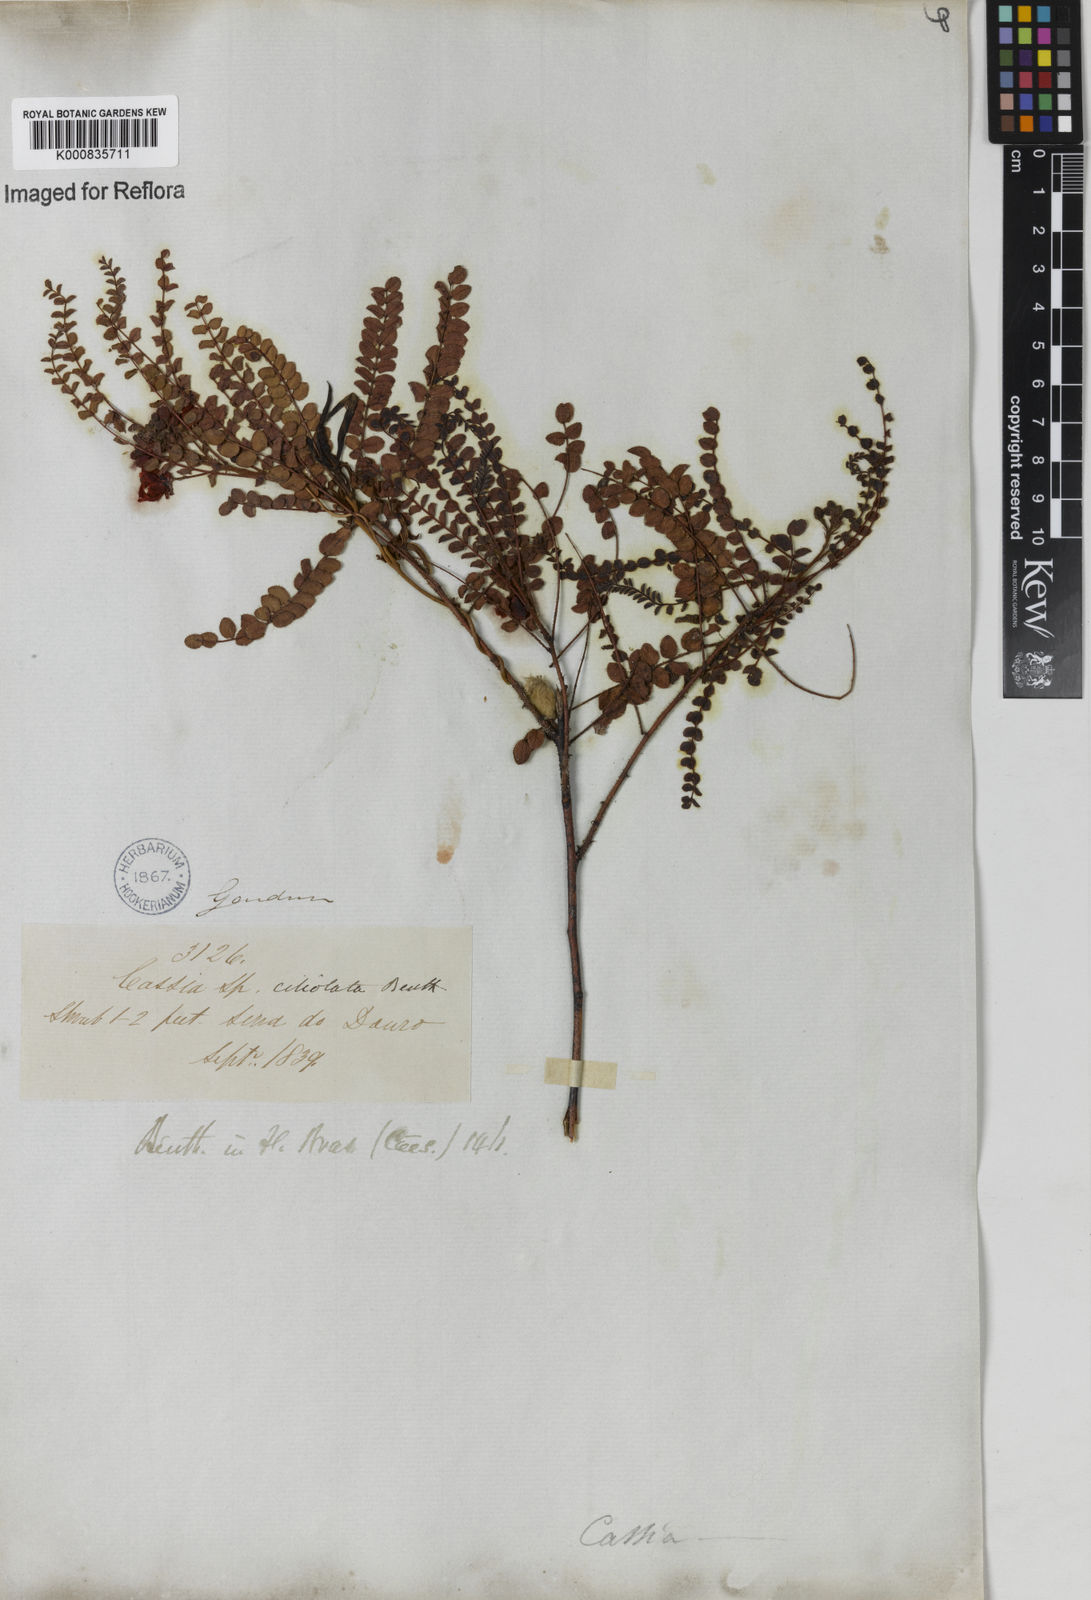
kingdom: Plantae
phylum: Tracheophyta
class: Magnoliopsida
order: Fabales
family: Fabaceae
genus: Chamaecrista
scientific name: Chamaecrista ciliolata
